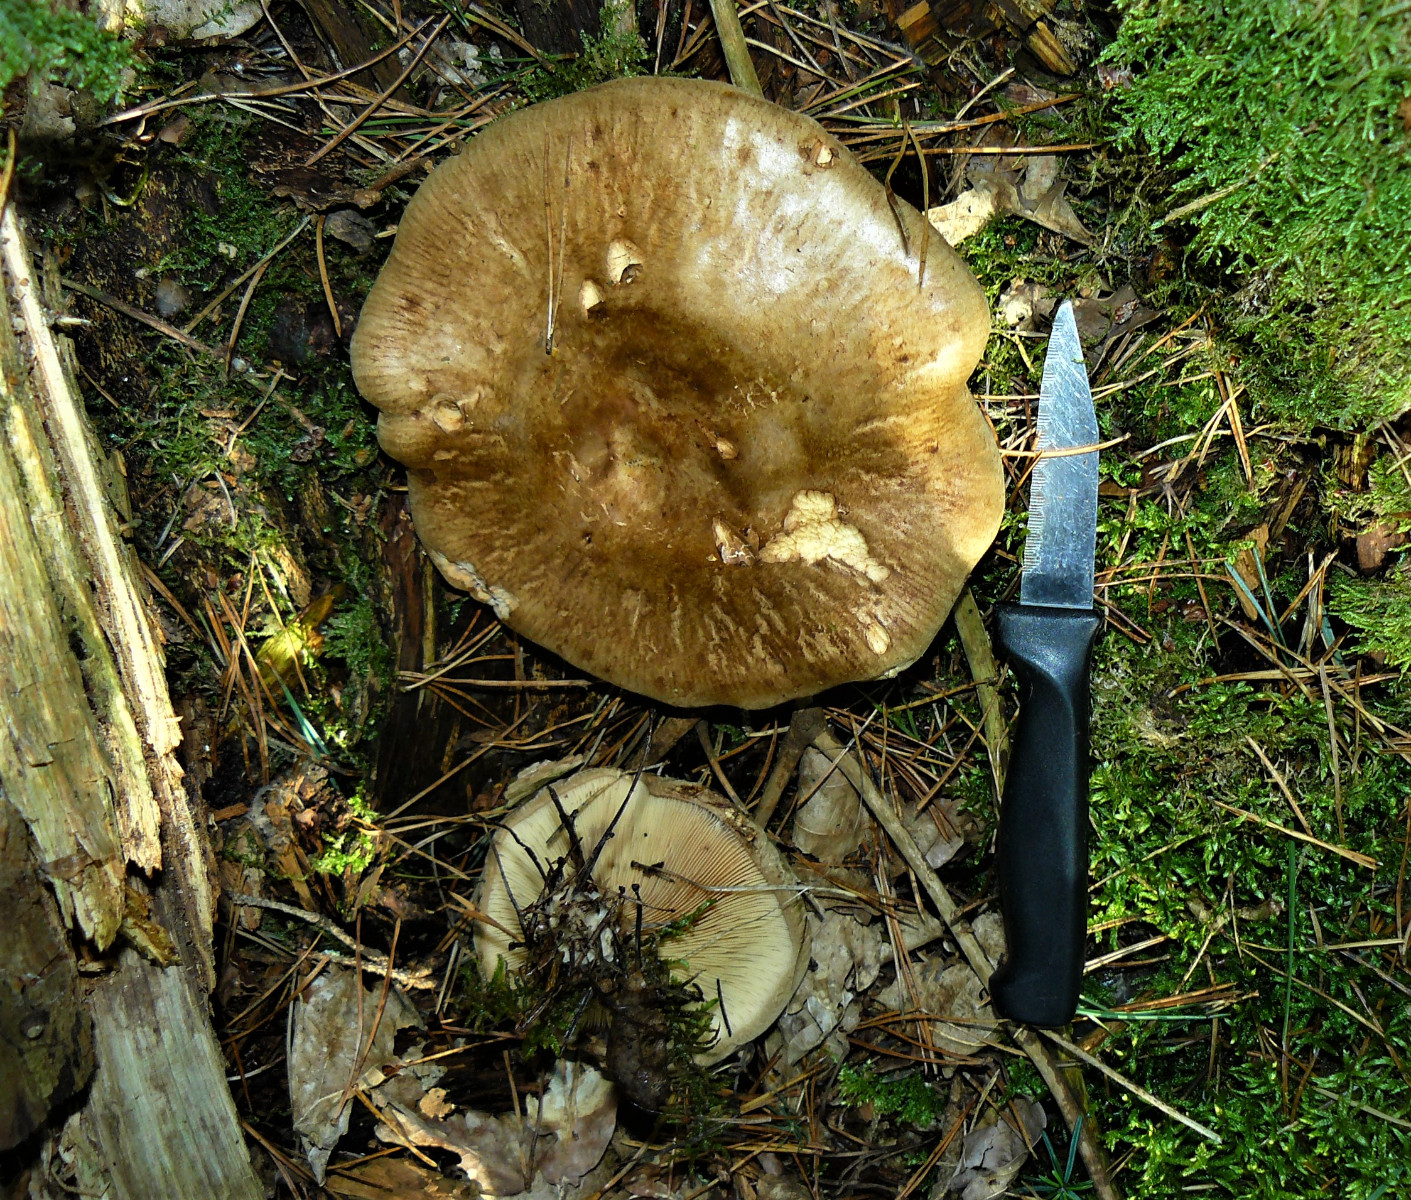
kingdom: Fungi
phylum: Basidiomycota
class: Agaricomycetes
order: Boletales
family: Paxillaceae
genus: Paxillus
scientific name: Paxillus involutus
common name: almindelig netbladhat
